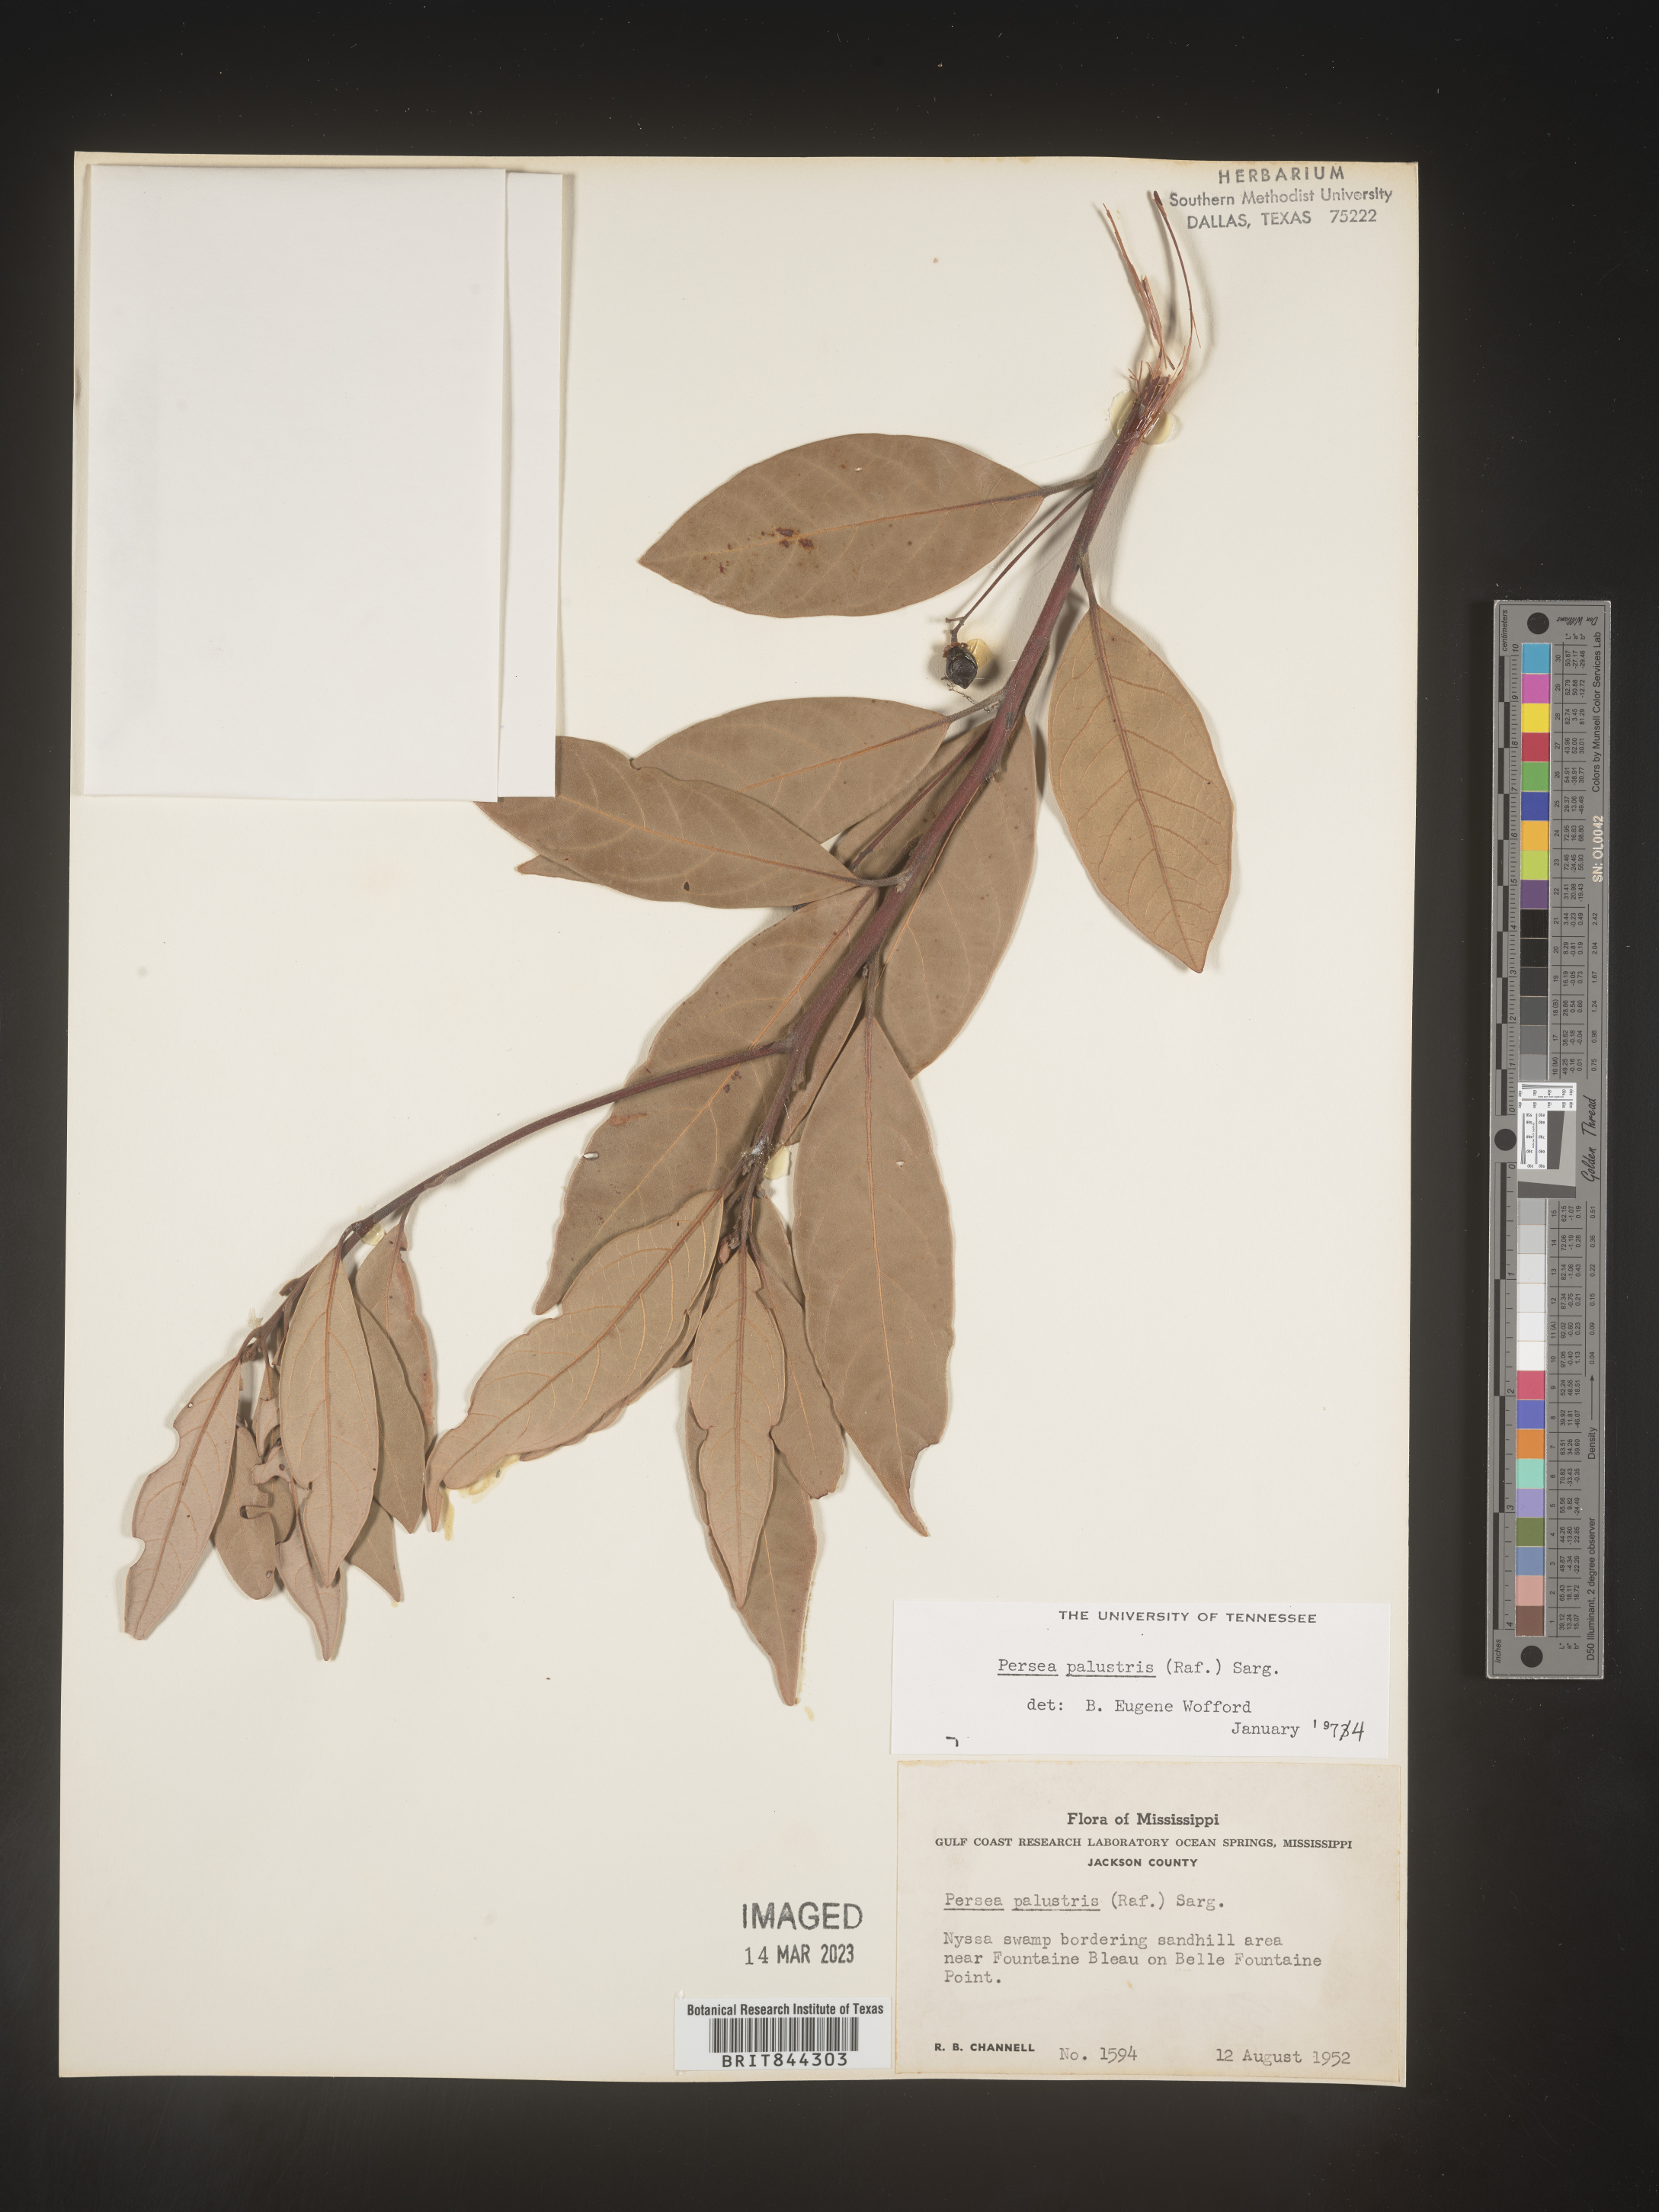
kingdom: Plantae
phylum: Tracheophyta
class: Magnoliopsida
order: Laurales
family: Lauraceae
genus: Persea
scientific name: Persea palustris
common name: Swampbay
